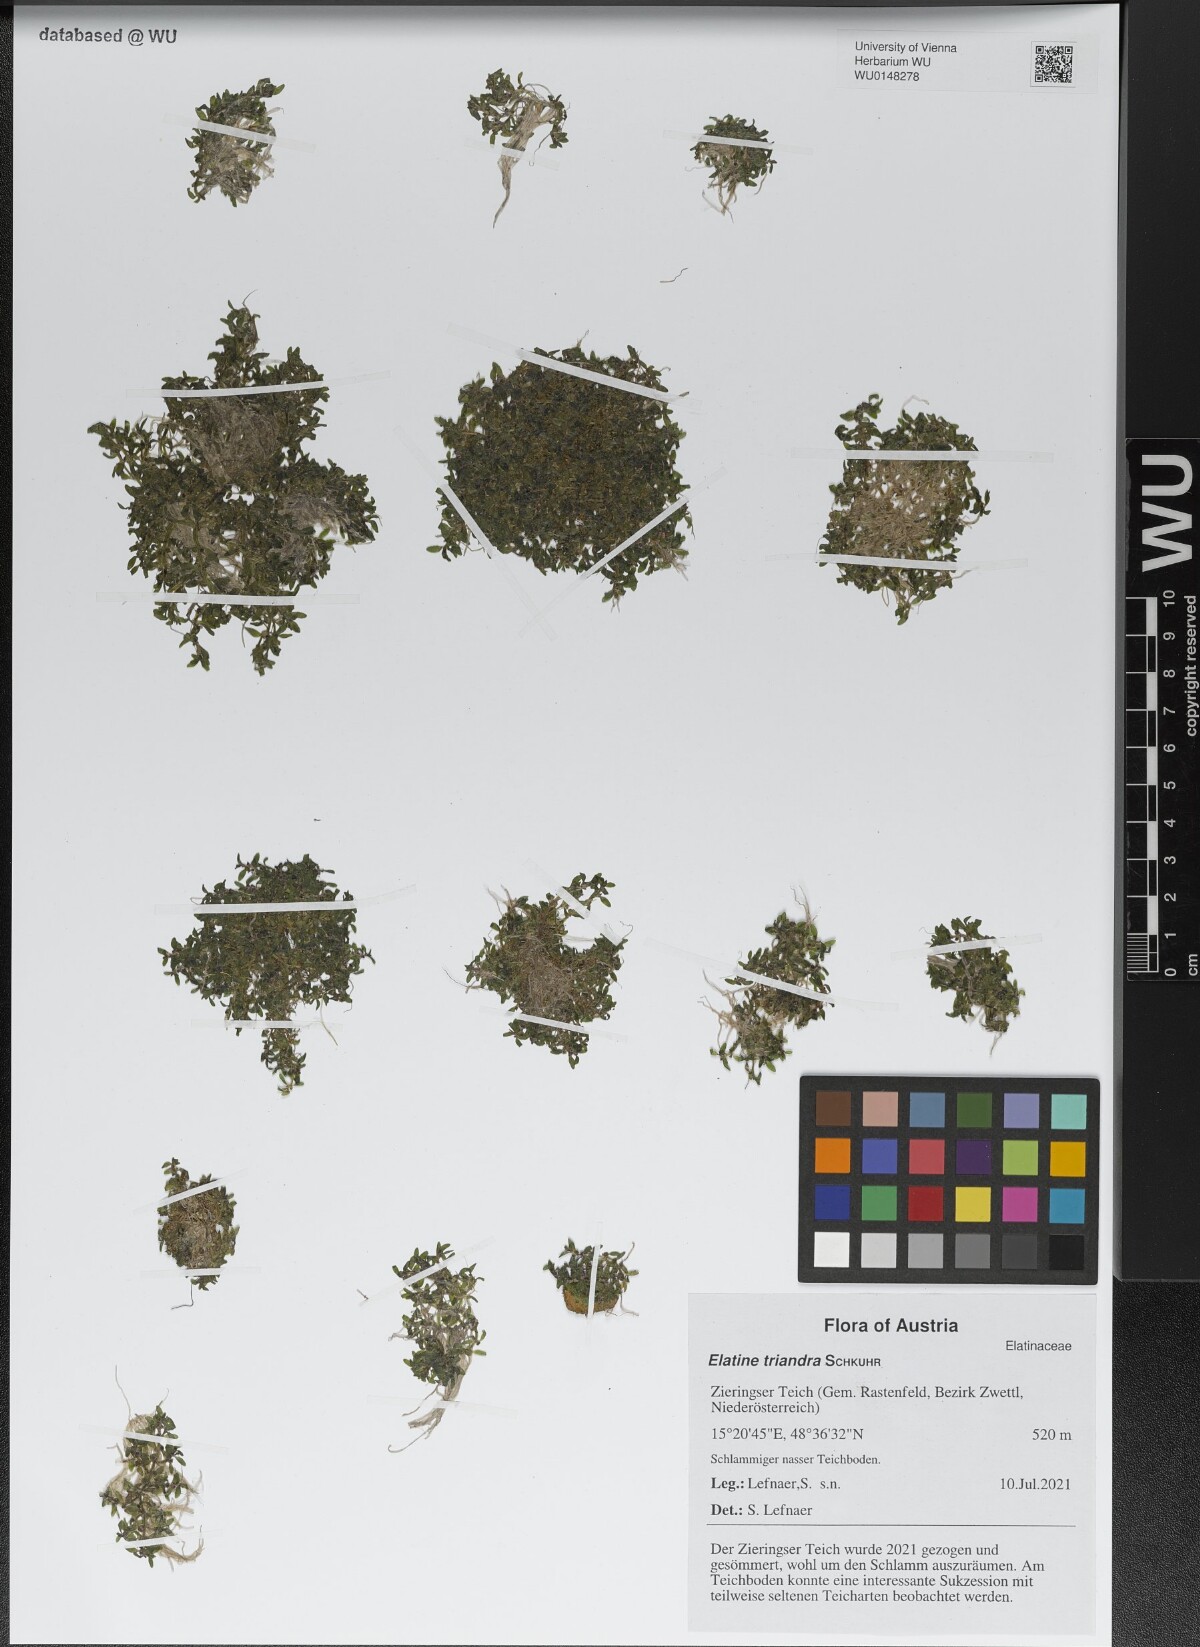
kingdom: Plantae
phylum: Tracheophyta
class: Magnoliopsida
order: Malpighiales
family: Elatinaceae
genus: Elatine
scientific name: Elatine triandra
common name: Three-stamened waterwort
